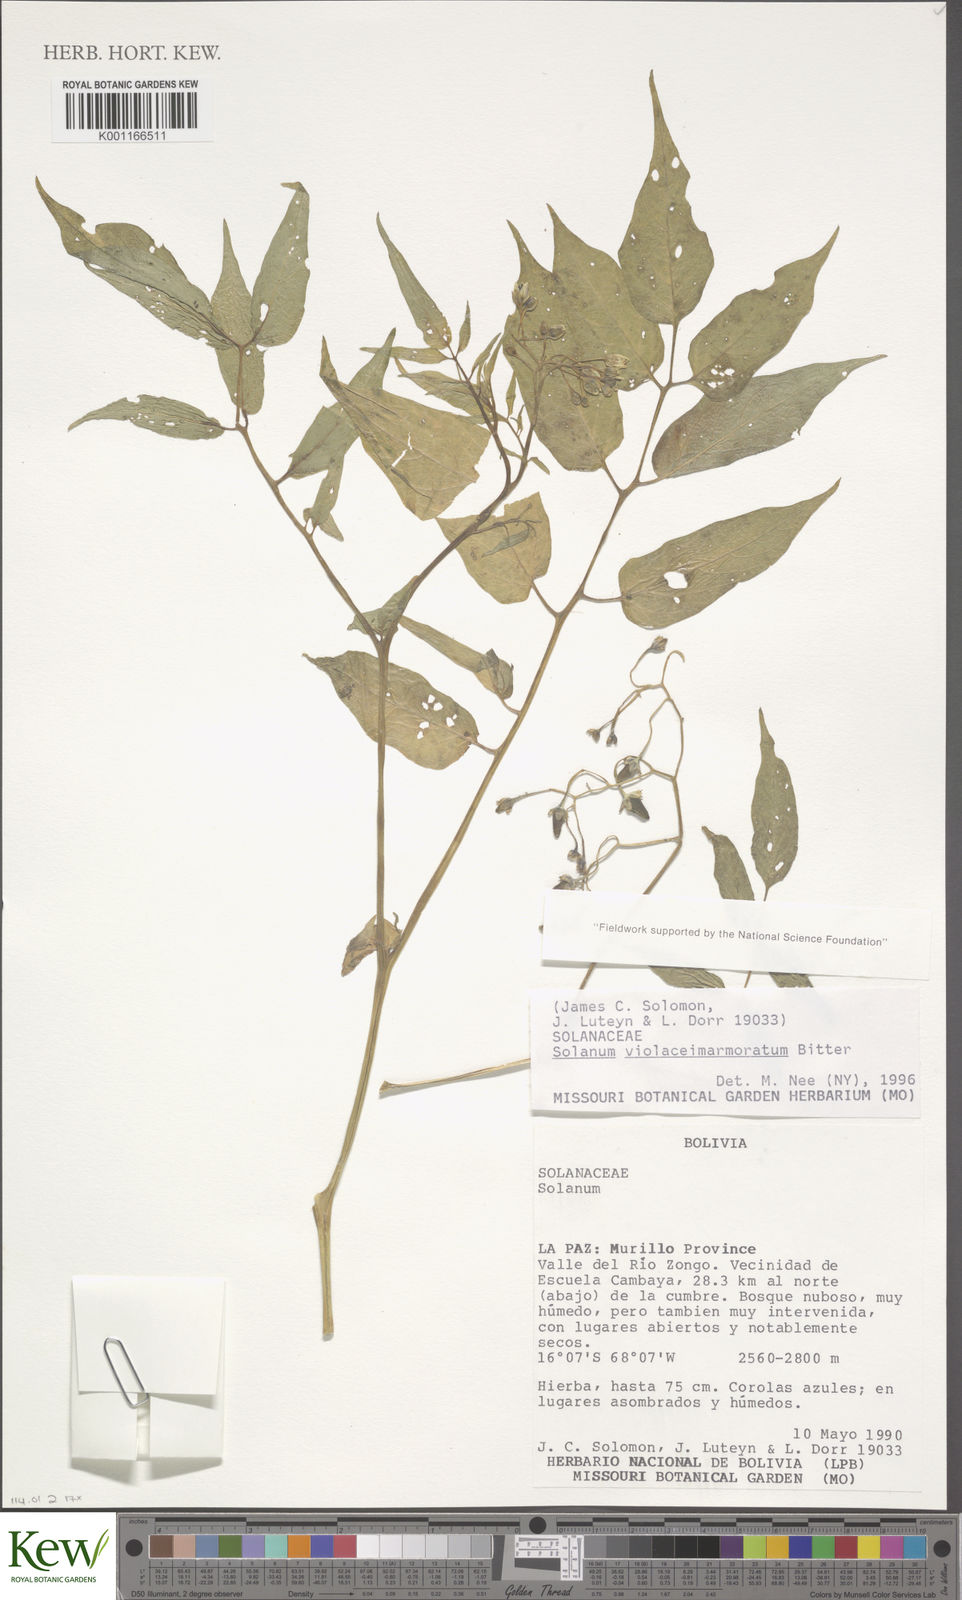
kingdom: Plantae
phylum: Tracheophyta
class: Magnoliopsida
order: Solanales
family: Solanaceae
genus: Solanum
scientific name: Solanum violaceimarmoratum
